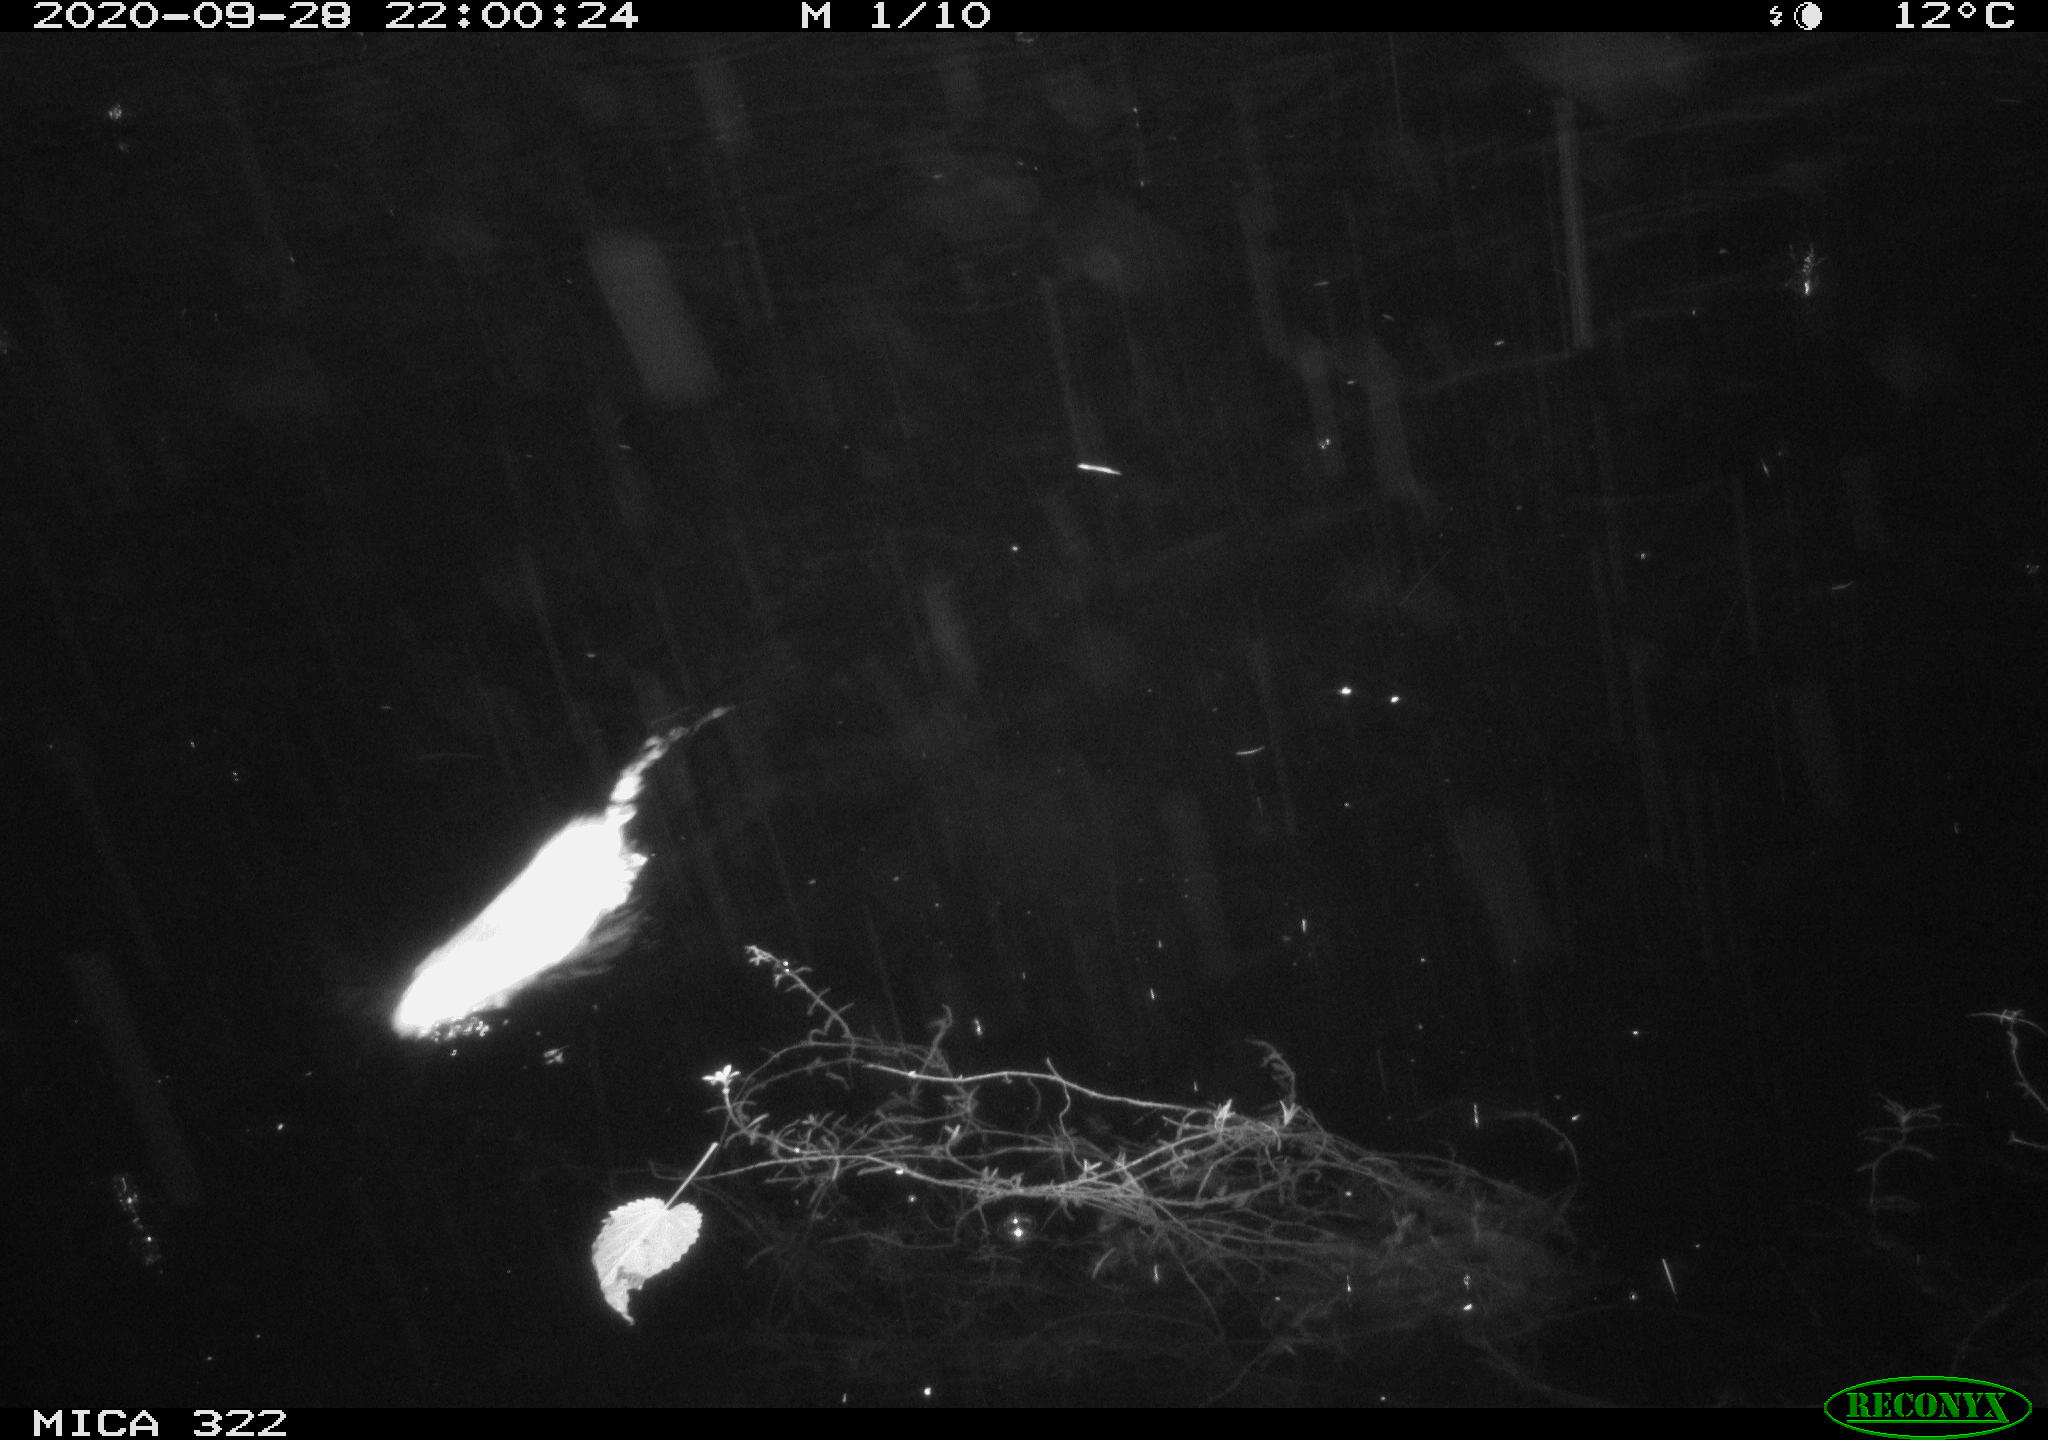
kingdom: Animalia
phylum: Chordata
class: Mammalia
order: Rodentia
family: Muridae
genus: Rattus
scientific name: Rattus norvegicus
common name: Brown rat
